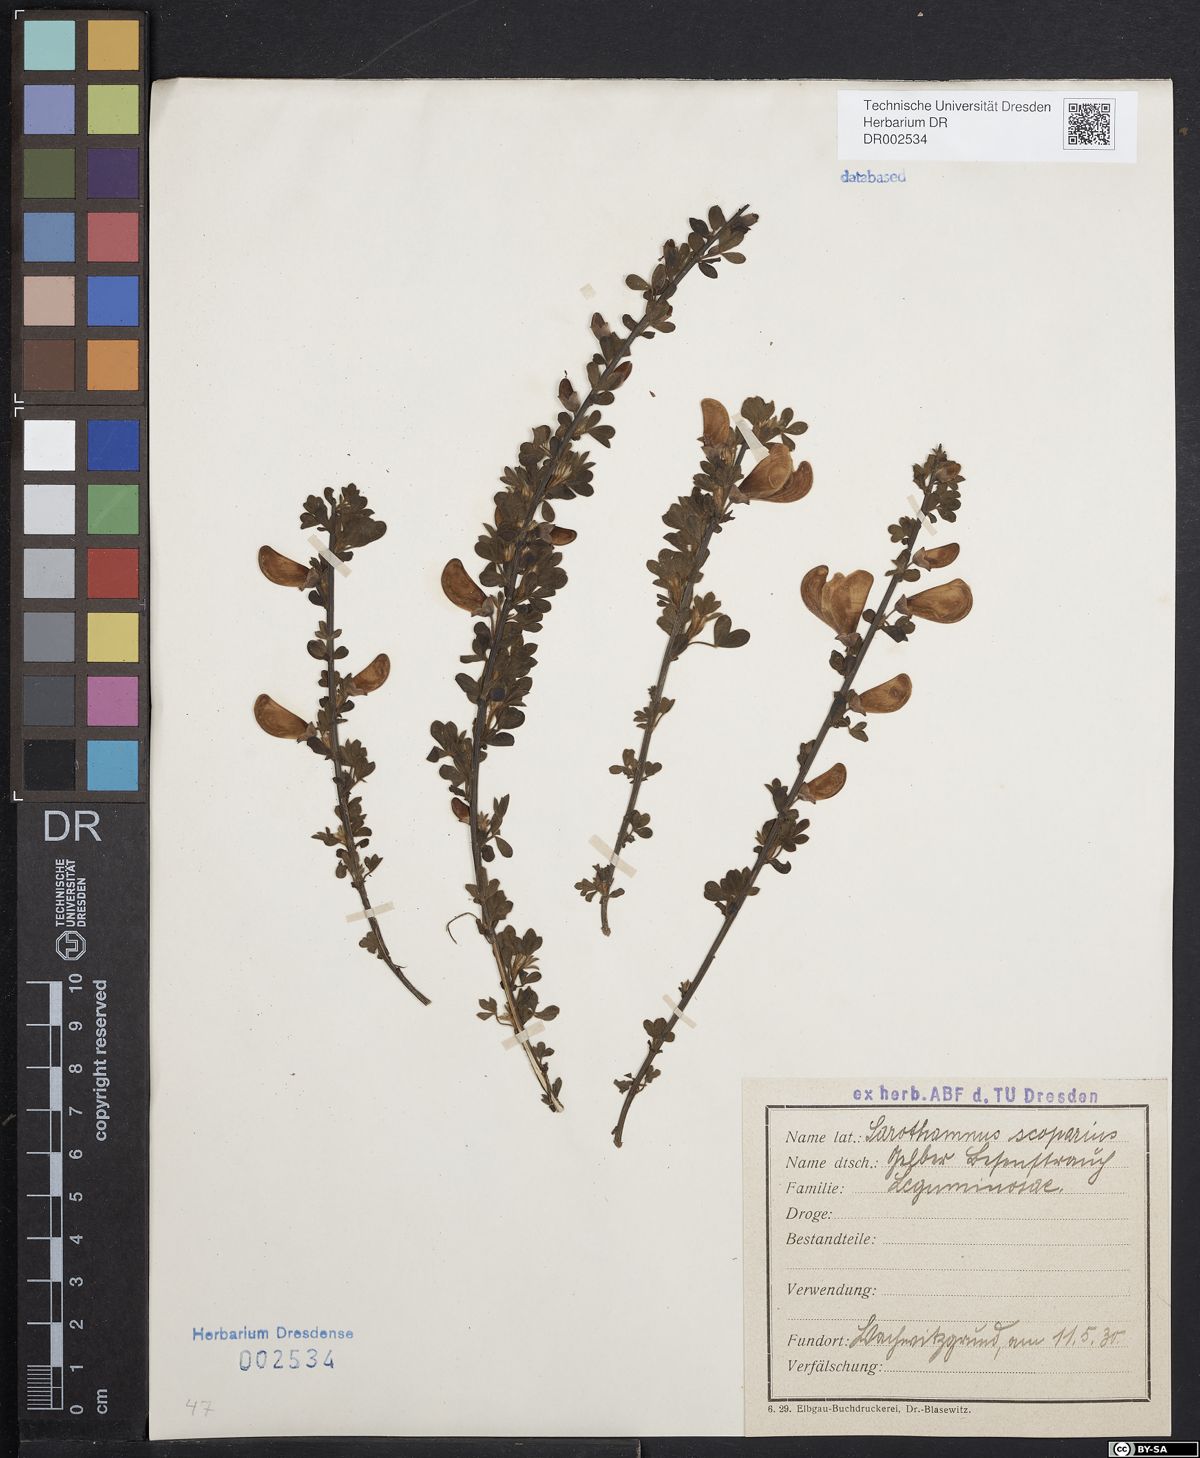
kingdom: Plantae
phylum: Tracheophyta
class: Magnoliopsida
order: Fabales
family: Fabaceae
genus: Cytisus
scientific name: Cytisus scoparius
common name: Scotch broom
